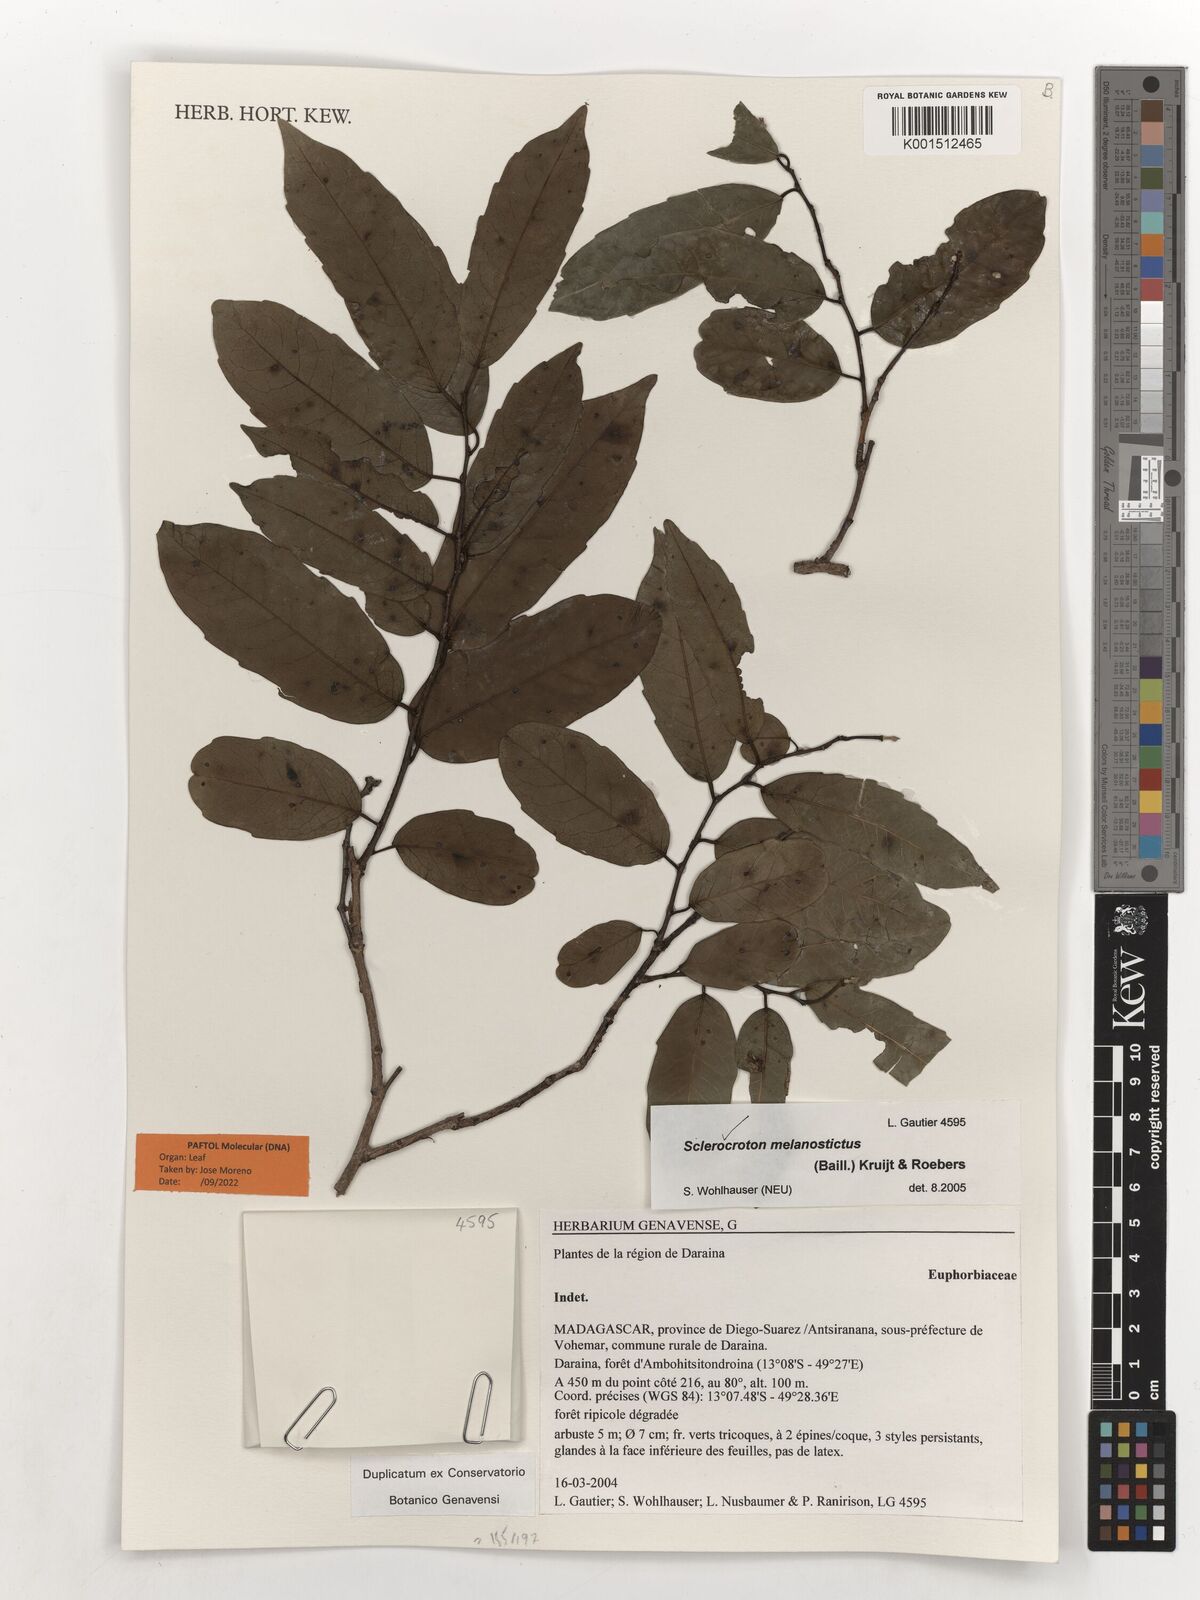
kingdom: Plantae
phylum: Tracheophyta
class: Magnoliopsida
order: Malpighiales
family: Euphorbiaceae
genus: Sclerocroton
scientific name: Sclerocroton melanostictus
